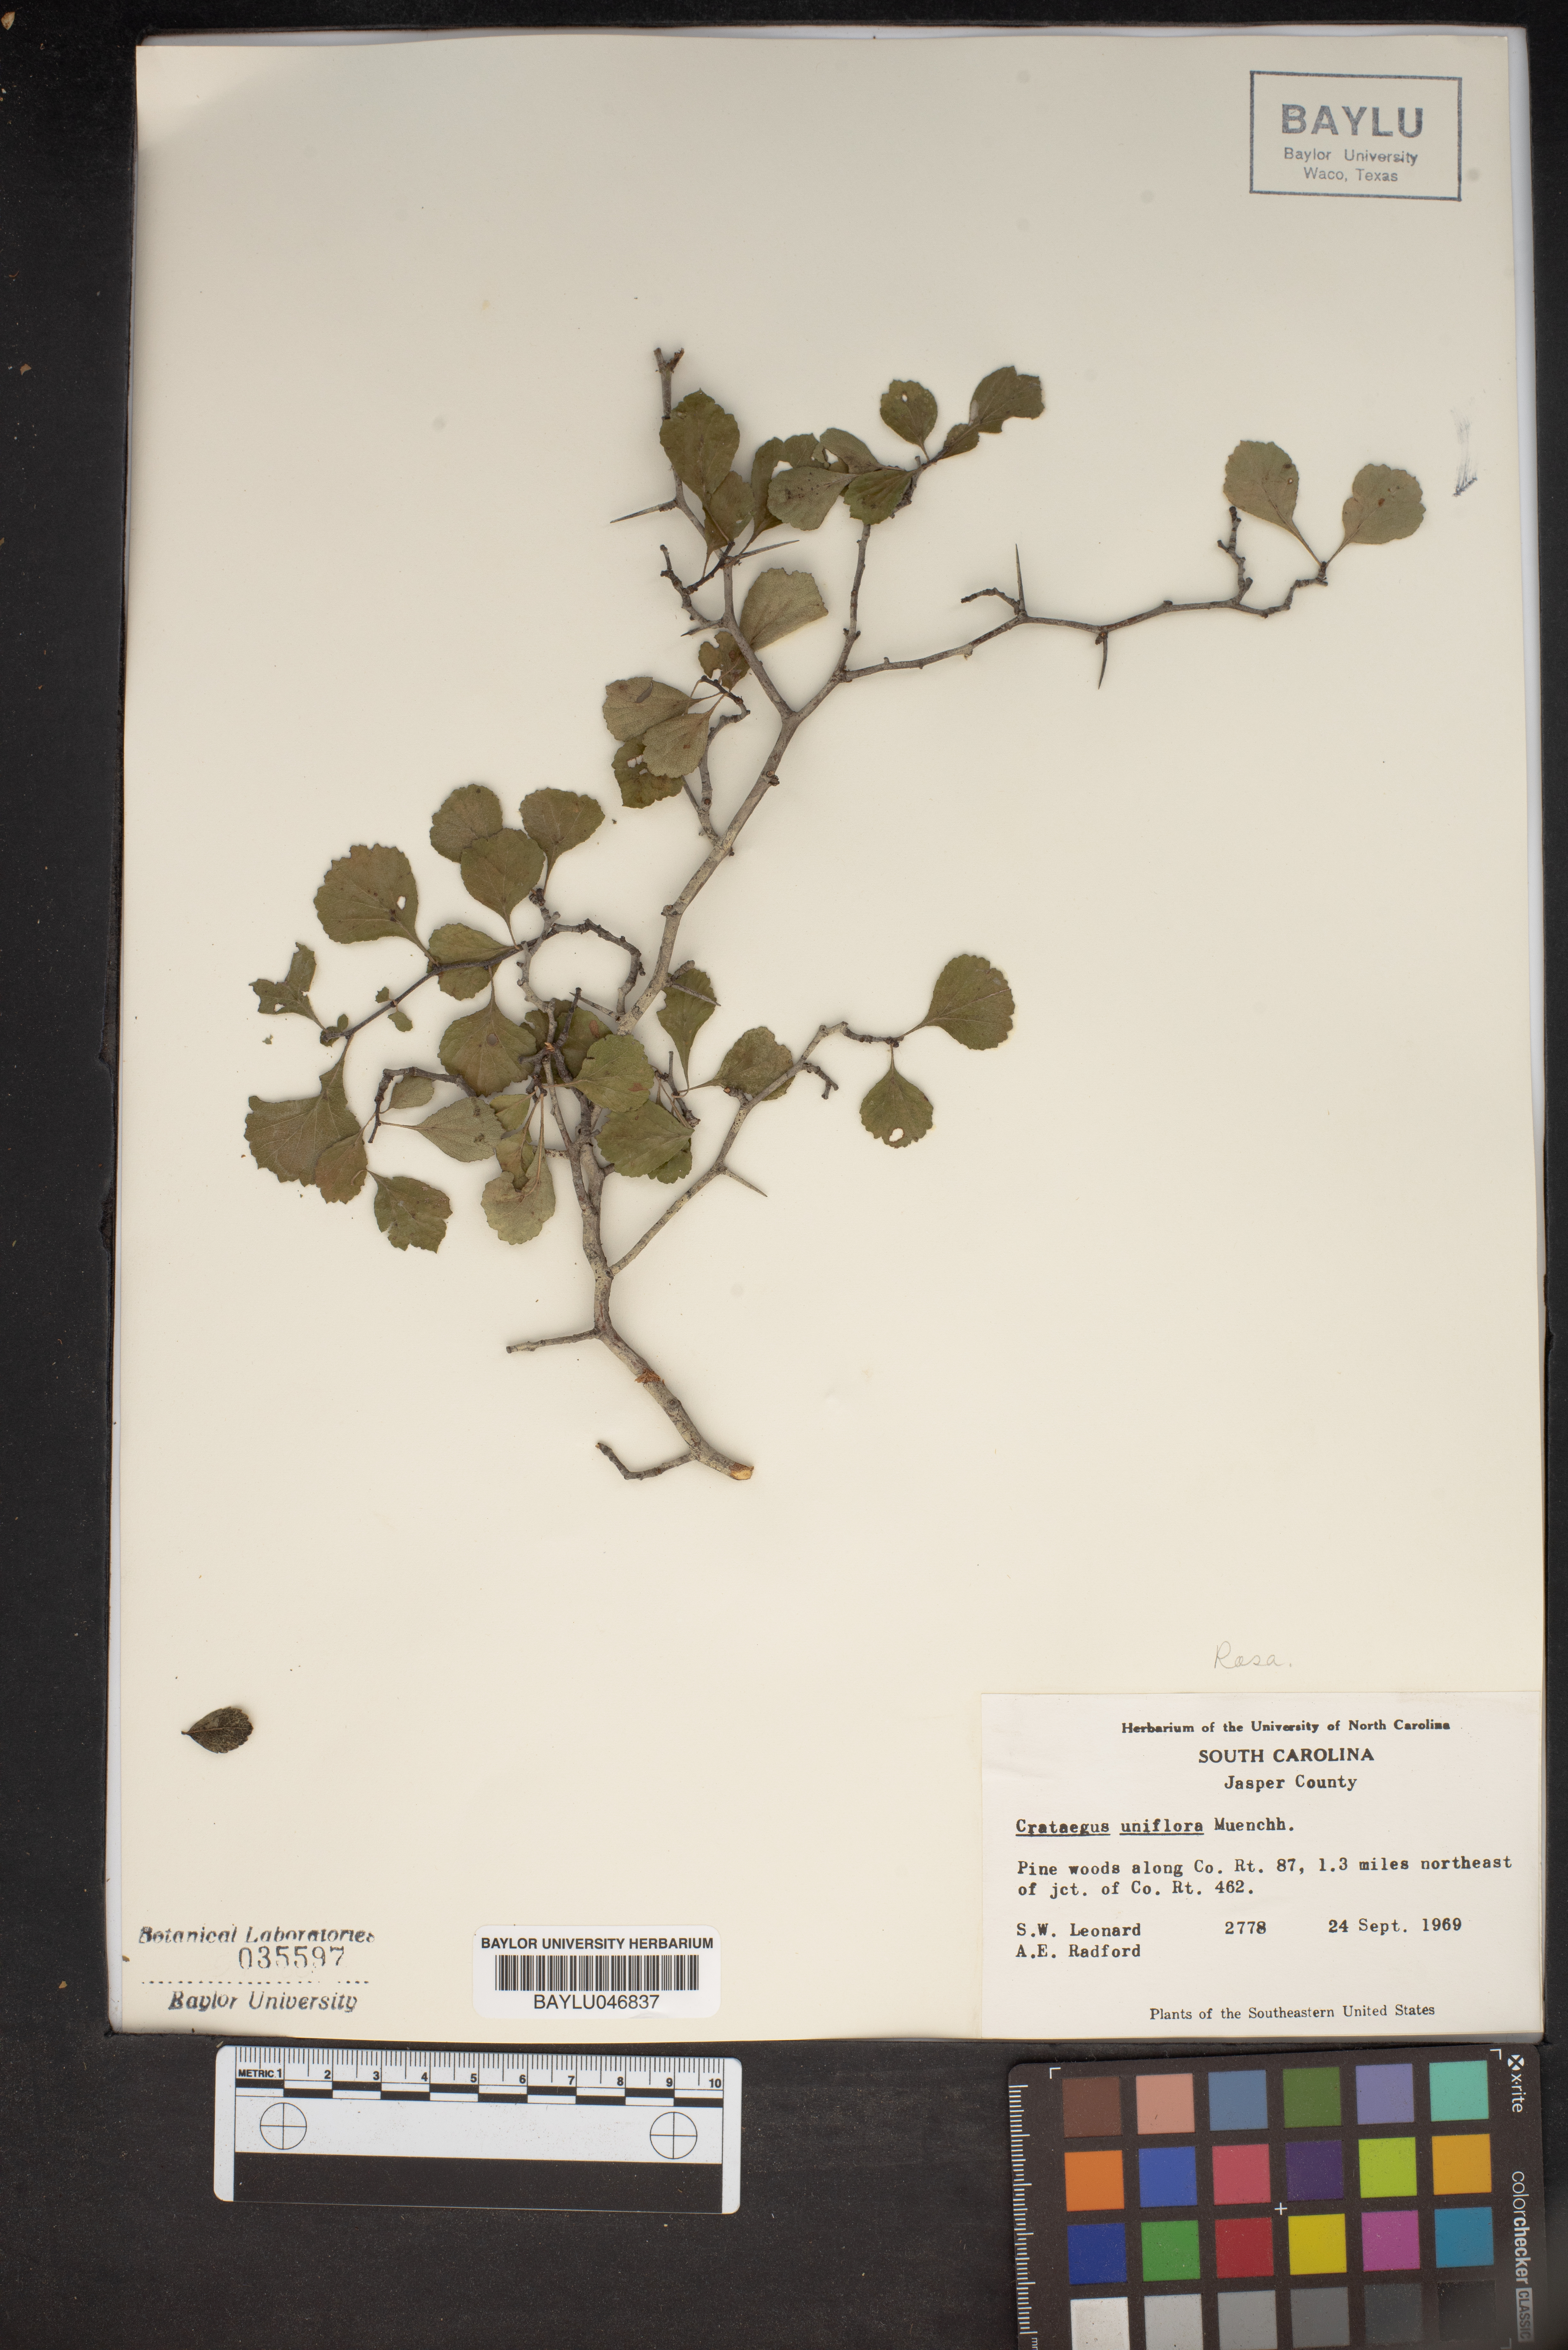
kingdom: Plantae
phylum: Tracheophyta
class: Magnoliopsida
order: Rosales
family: Rosaceae
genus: Crataegus
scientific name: Crataegus uniflora
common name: One-flower hawthorn
